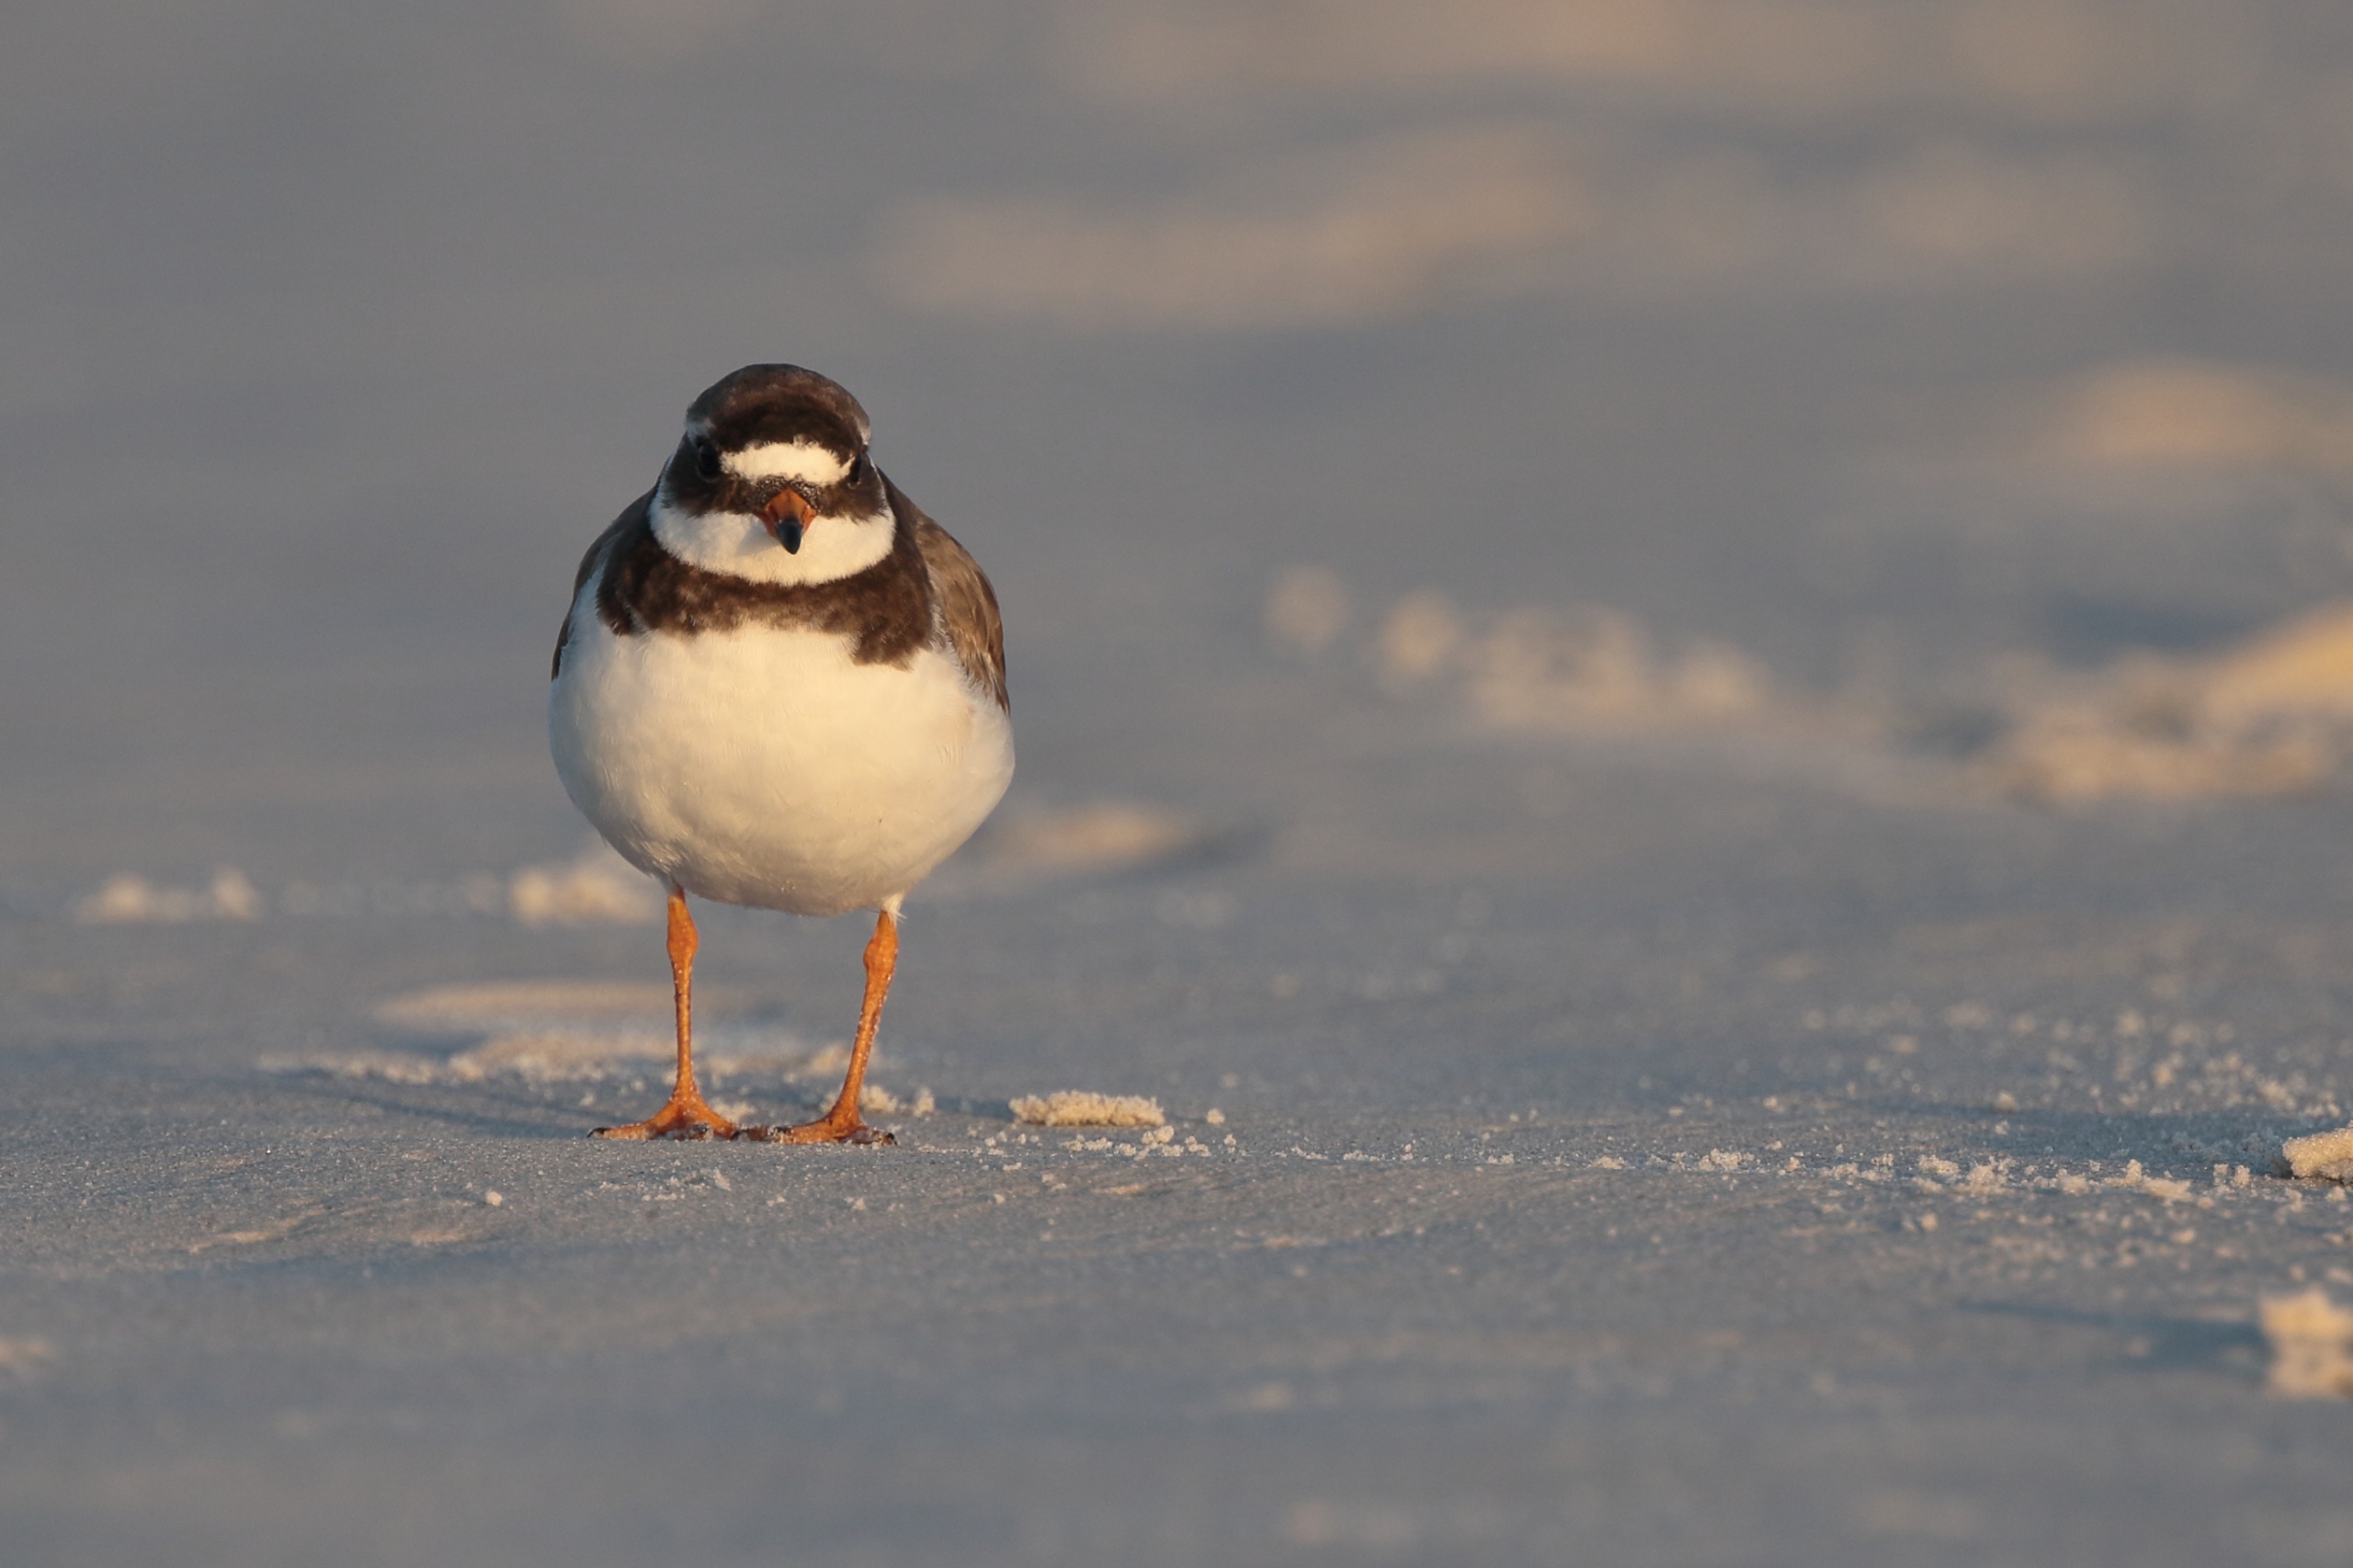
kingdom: Animalia
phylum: Chordata
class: Aves
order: Charadriiformes
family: Charadriidae
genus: Charadrius
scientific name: Charadrius hiaticula
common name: Stor præstekrave
